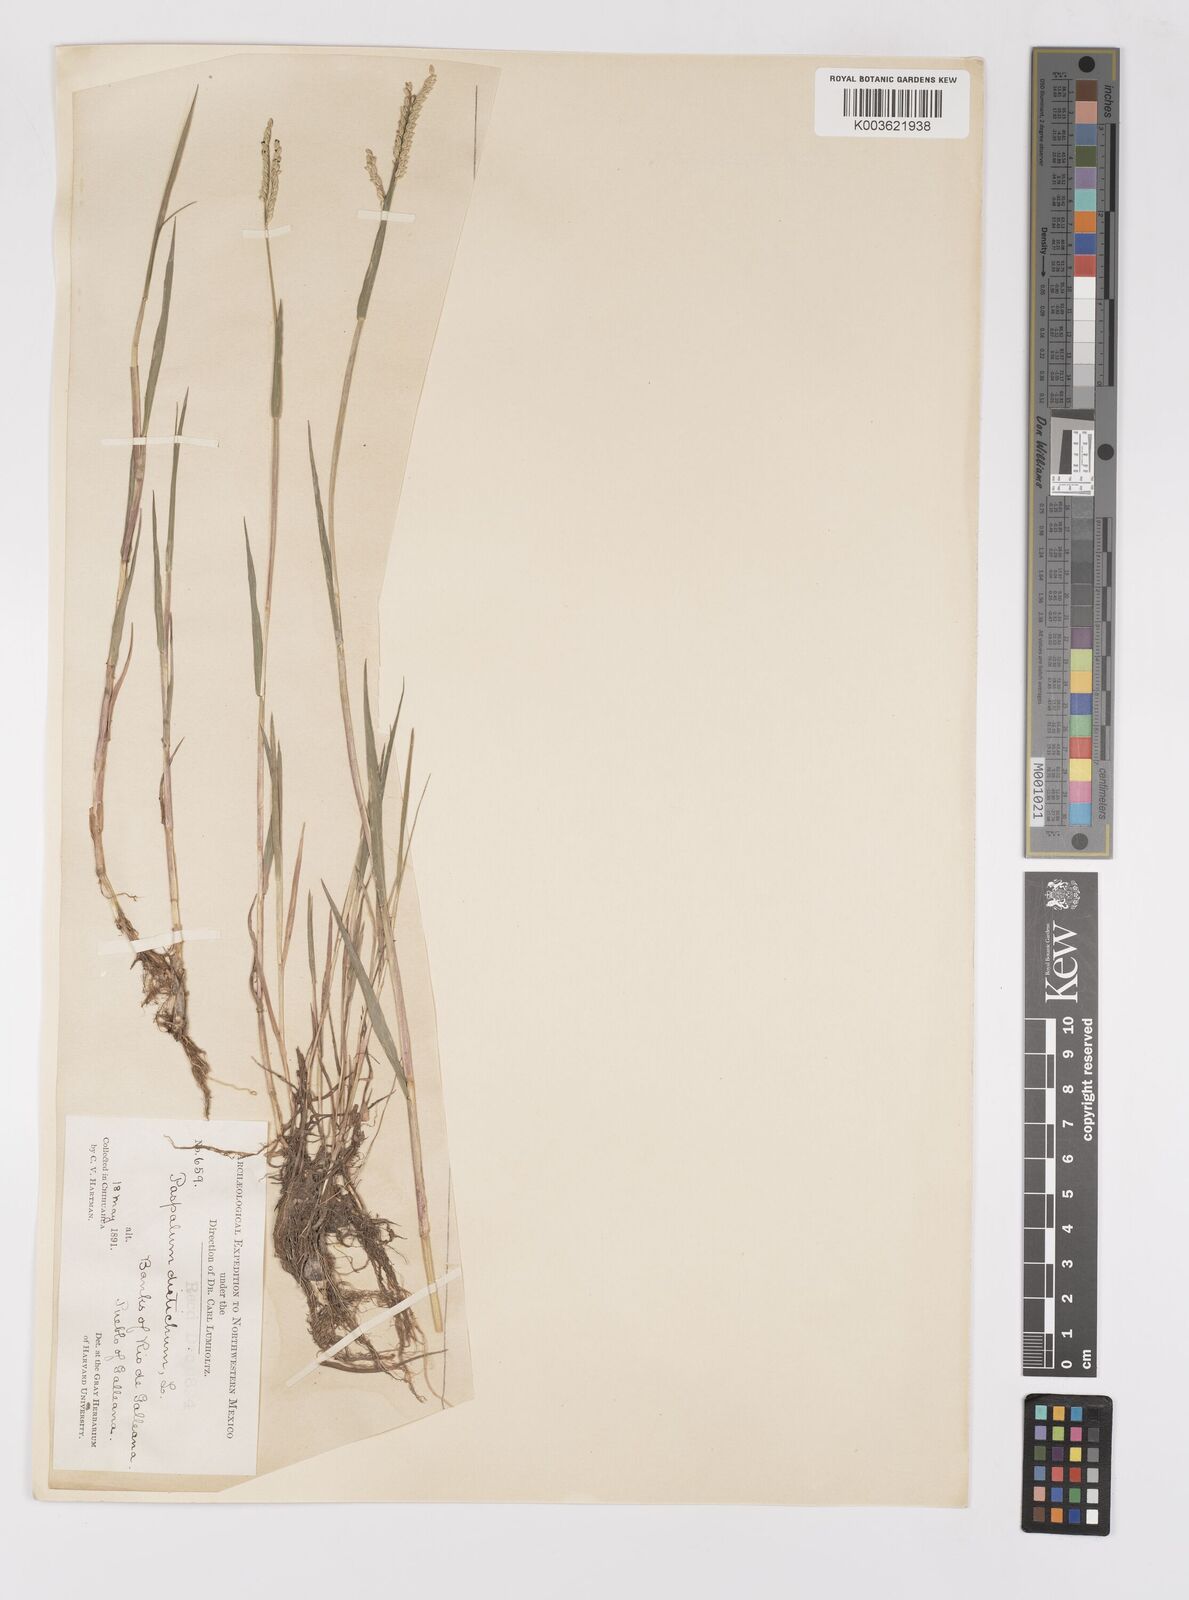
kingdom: Plantae
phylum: Tracheophyta
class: Liliopsida
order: Poales
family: Poaceae
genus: Paspalum
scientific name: Paspalum distichum
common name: Knotgrass
